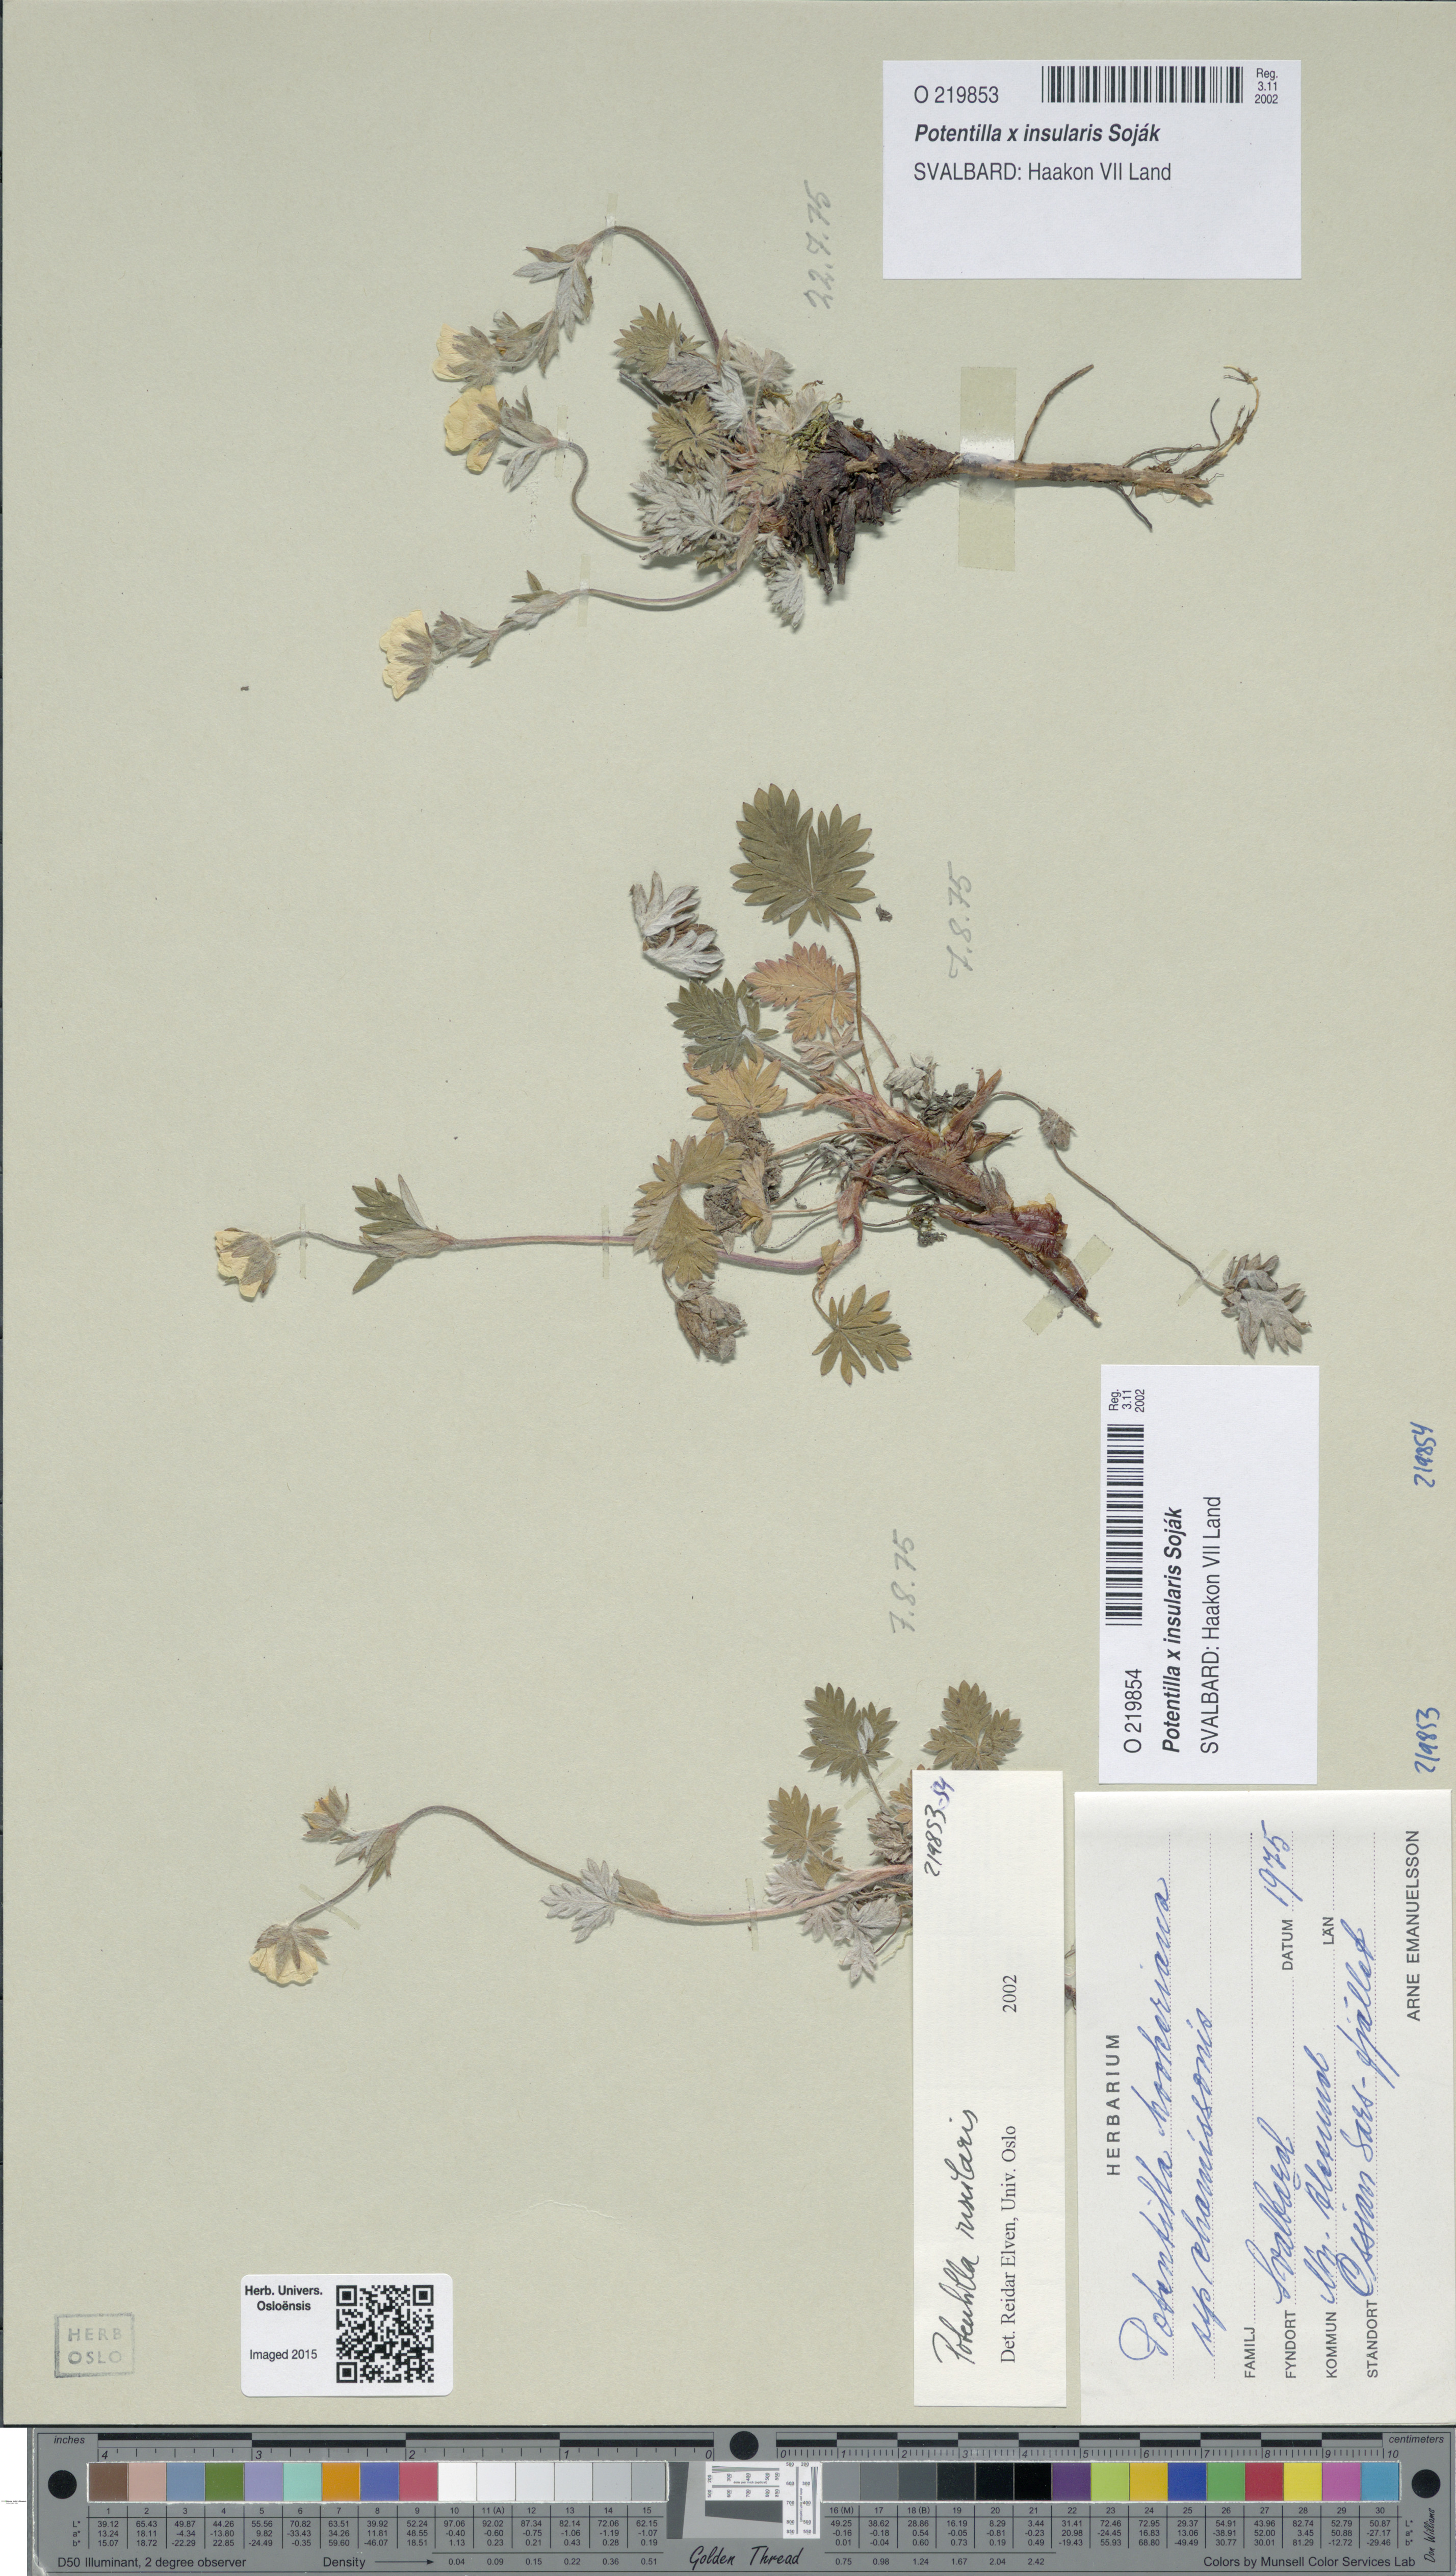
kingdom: Plantae
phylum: Tracheophyta
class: Magnoliopsida
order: Rosales
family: Rosaceae
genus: Potentilla
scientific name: Potentilla insularis
